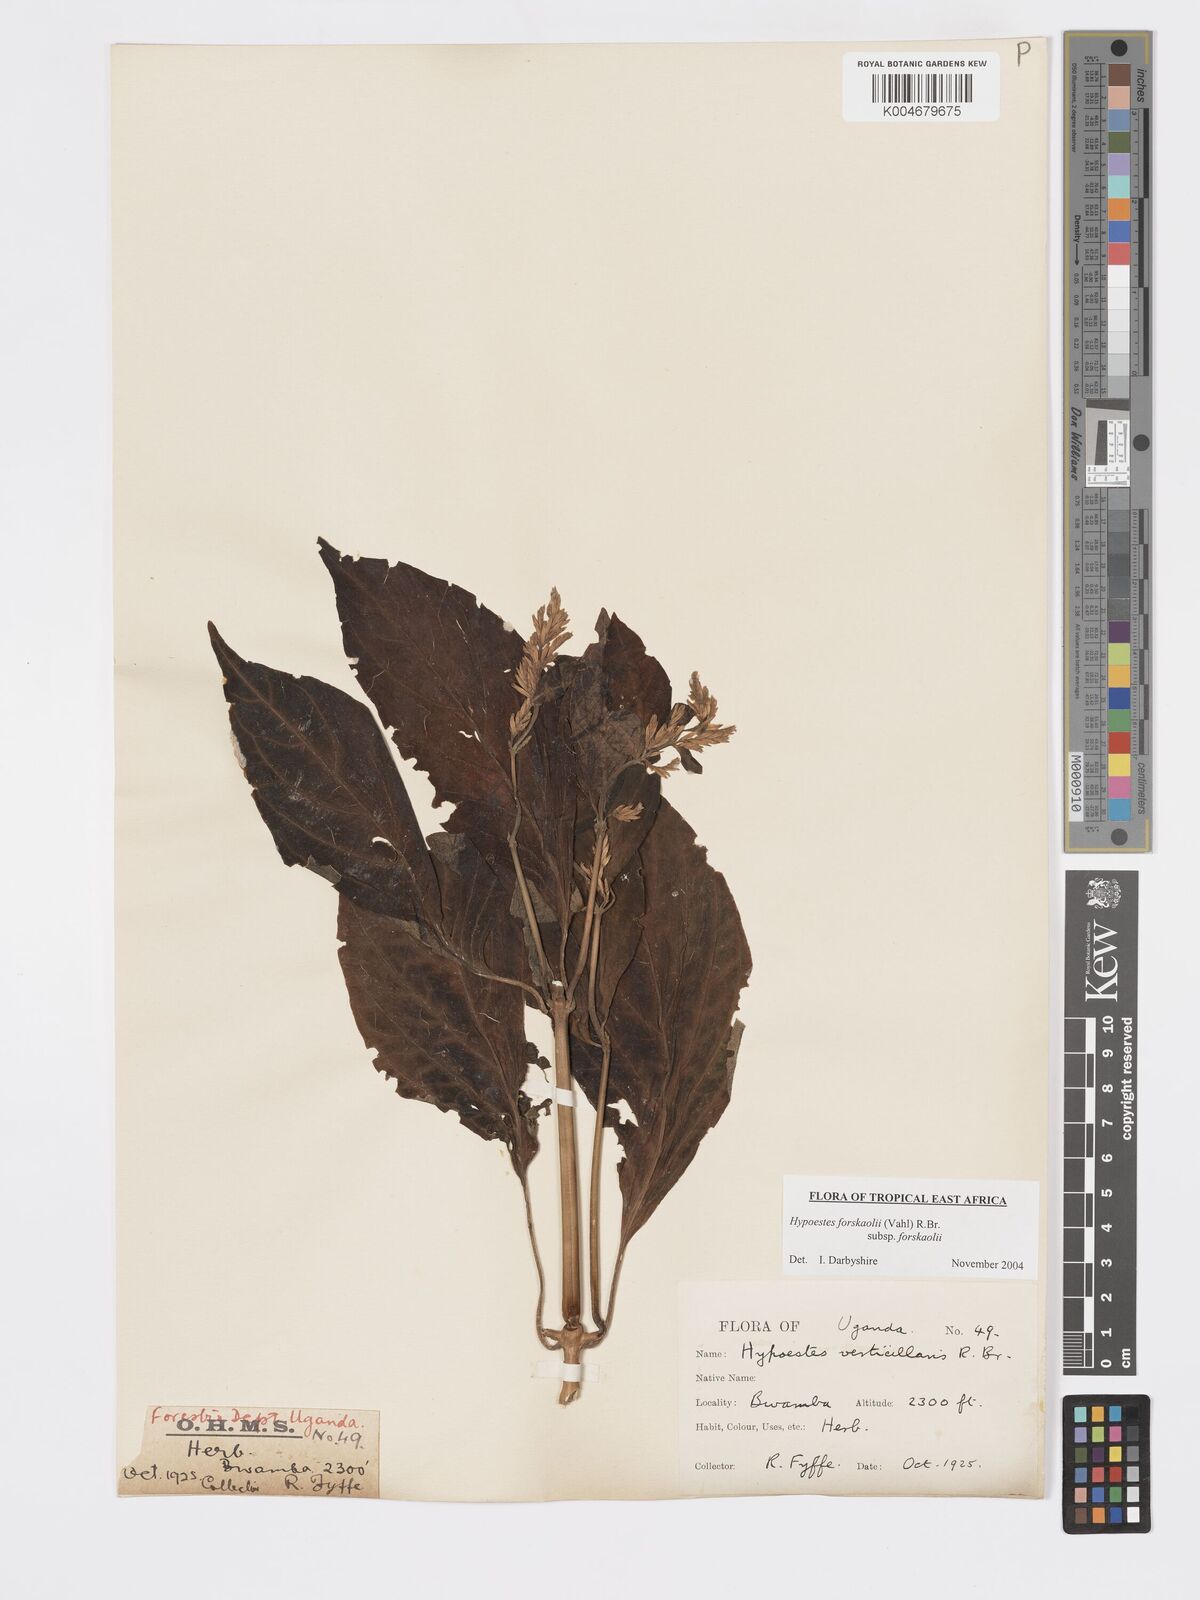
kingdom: Plantae
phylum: Tracheophyta
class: Magnoliopsida
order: Lamiales
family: Acanthaceae
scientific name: Acanthaceae
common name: Acanthaceae
